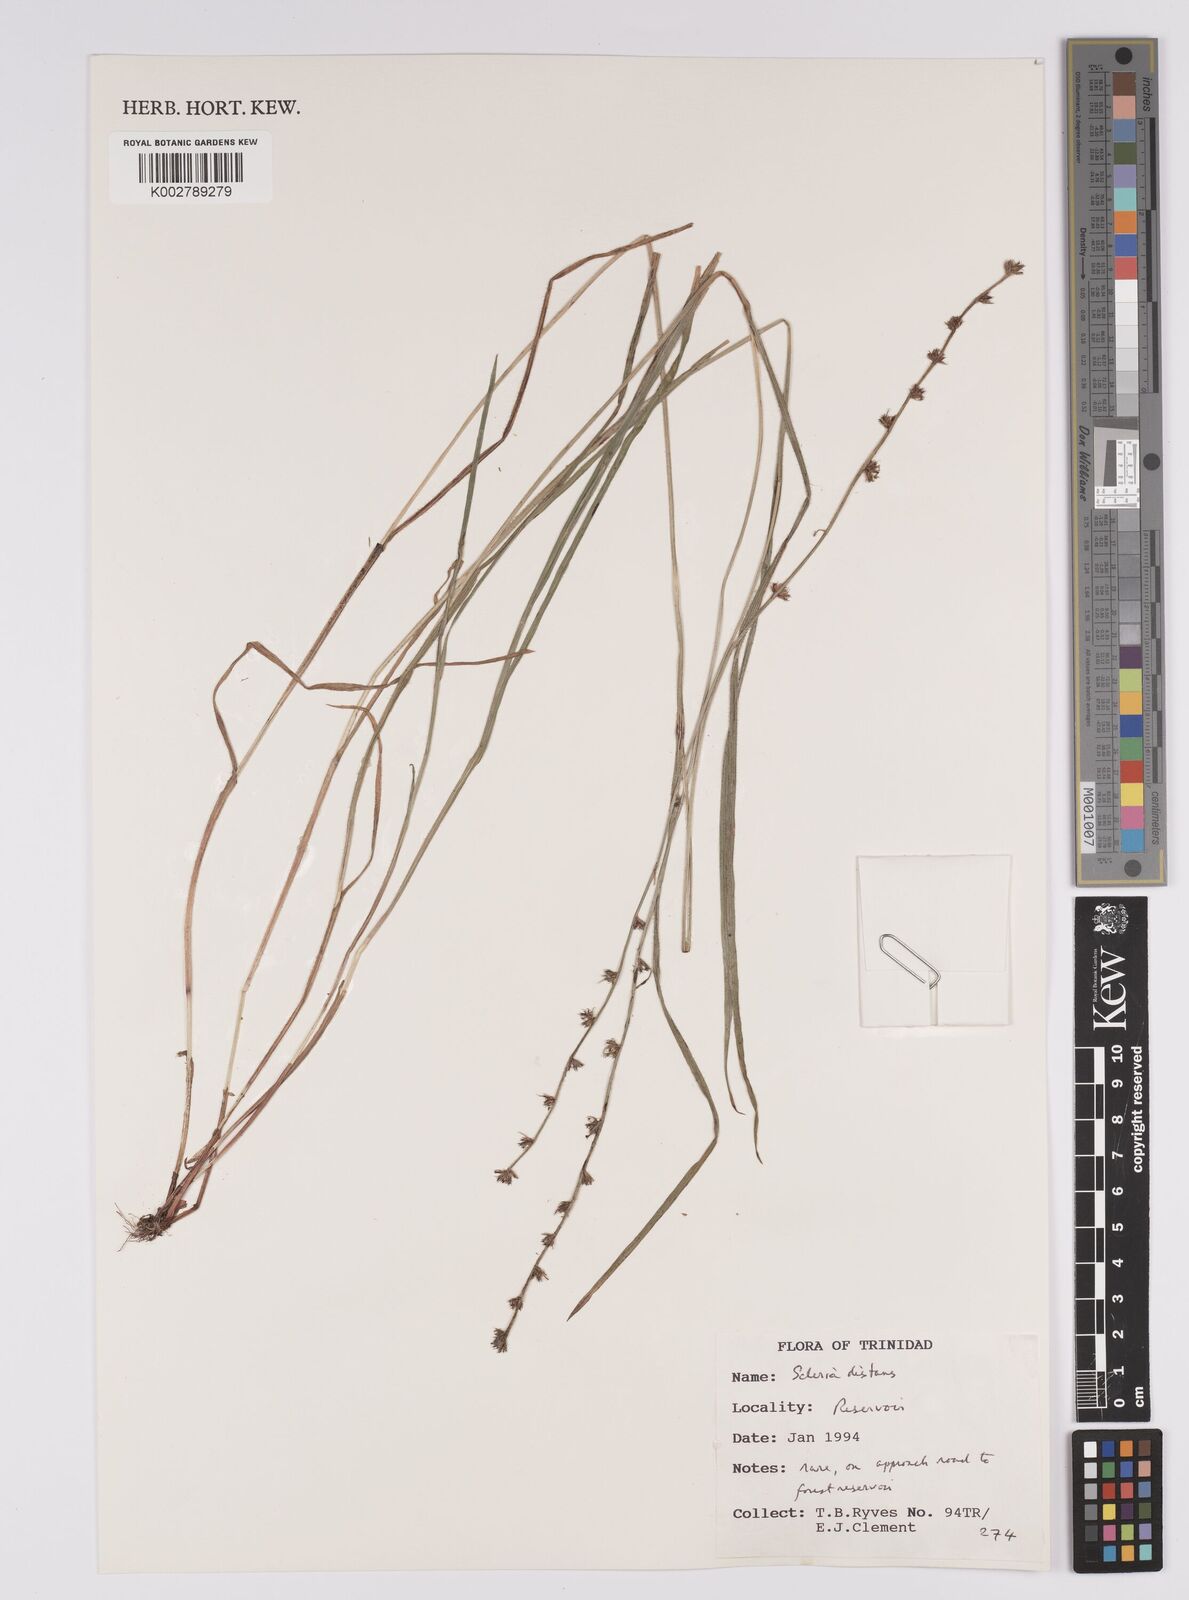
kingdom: Plantae
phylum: Tracheophyta
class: Liliopsida
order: Poales
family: Cyperaceae
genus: Scleria
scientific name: Scleria distans
